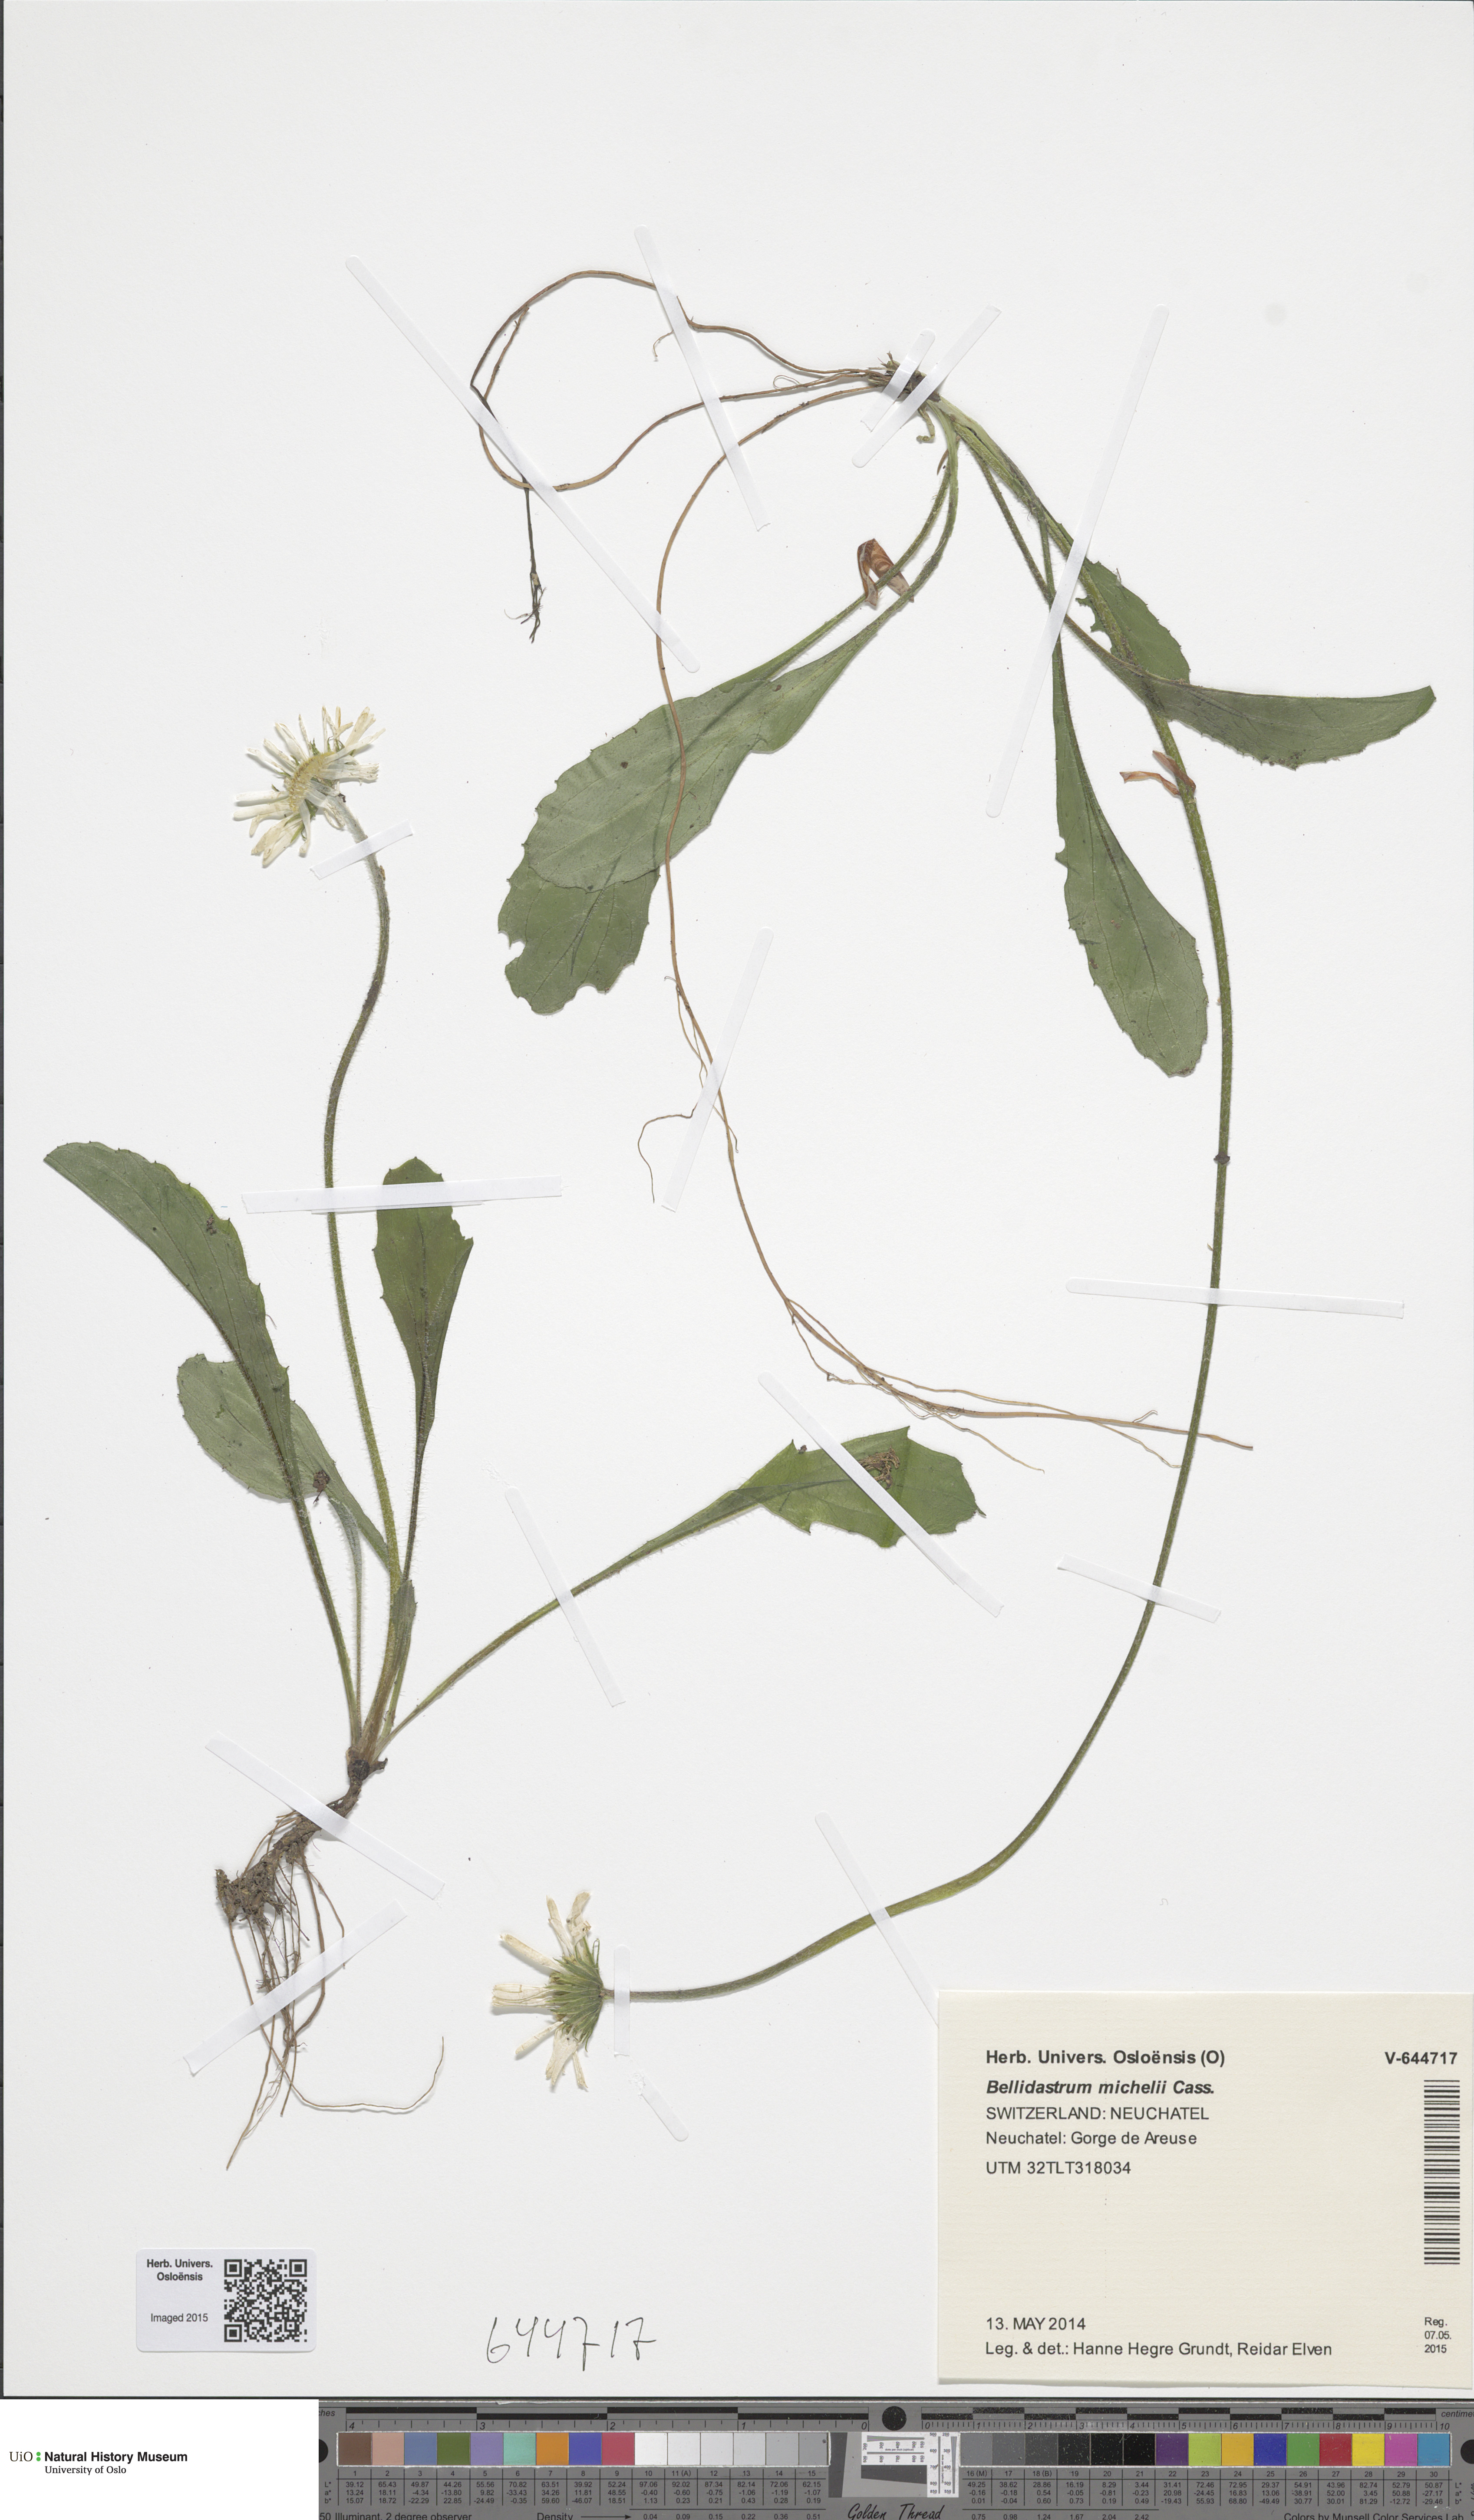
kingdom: Plantae
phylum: Tracheophyta
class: Magnoliopsida
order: Asterales
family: Asteraceae
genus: Bellidiastrum
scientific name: Bellidiastrum michelii
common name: Daisy-star aster
